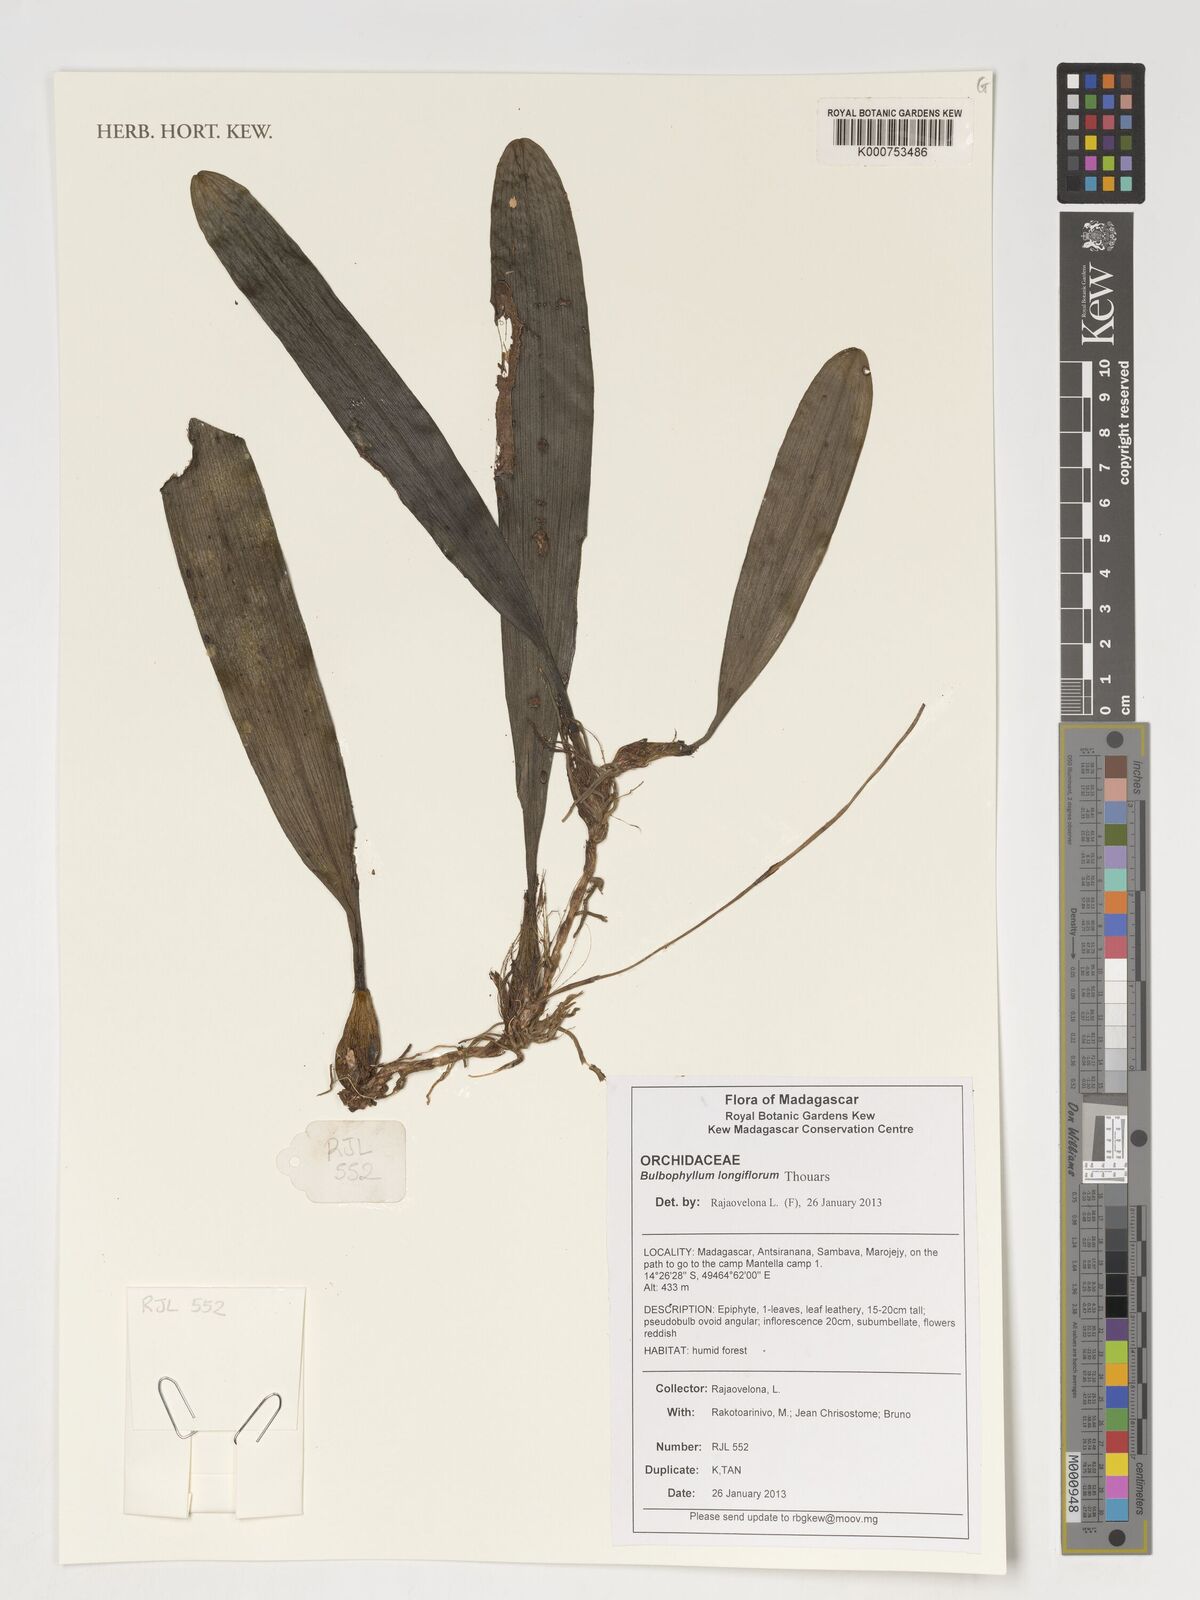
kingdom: Plantae
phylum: Tracheophyta
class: Liliopsida
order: Asparagales
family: Orchidaceae
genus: Bulbophyllum
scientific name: Bulbophyllum longiflorum
